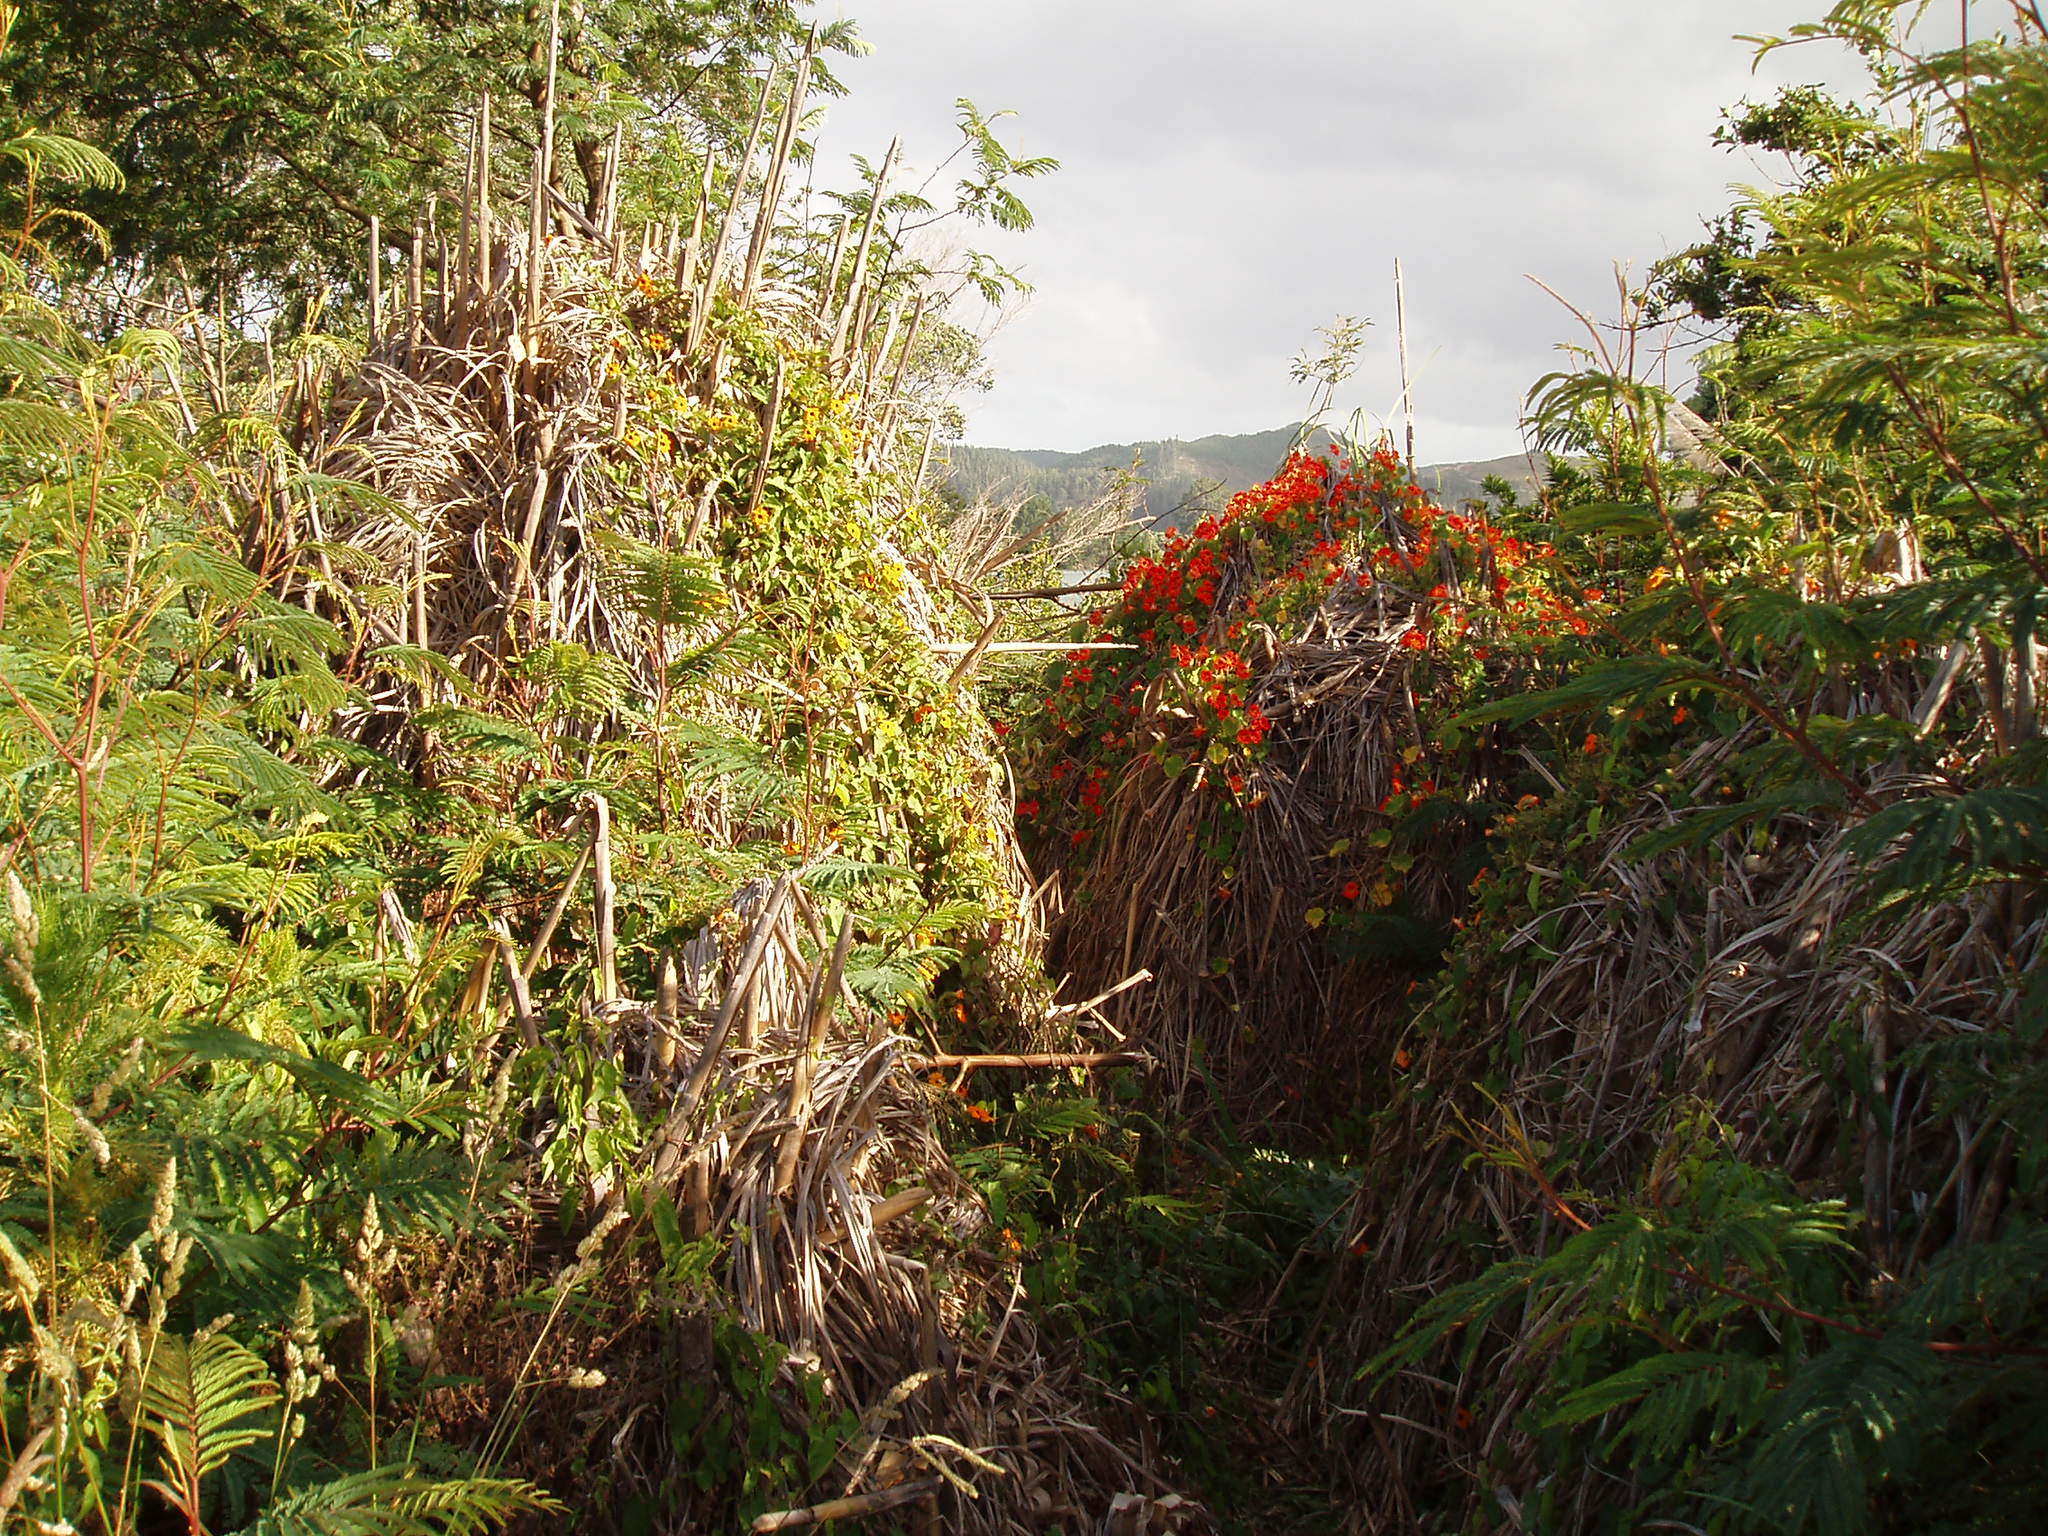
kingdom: Plantae
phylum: Tracheophyta
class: Magnoliopsida
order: Brassicales
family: Tropaeolaceae
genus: Tropaeolum
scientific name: Tropaeolum majus
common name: Nasturtium
